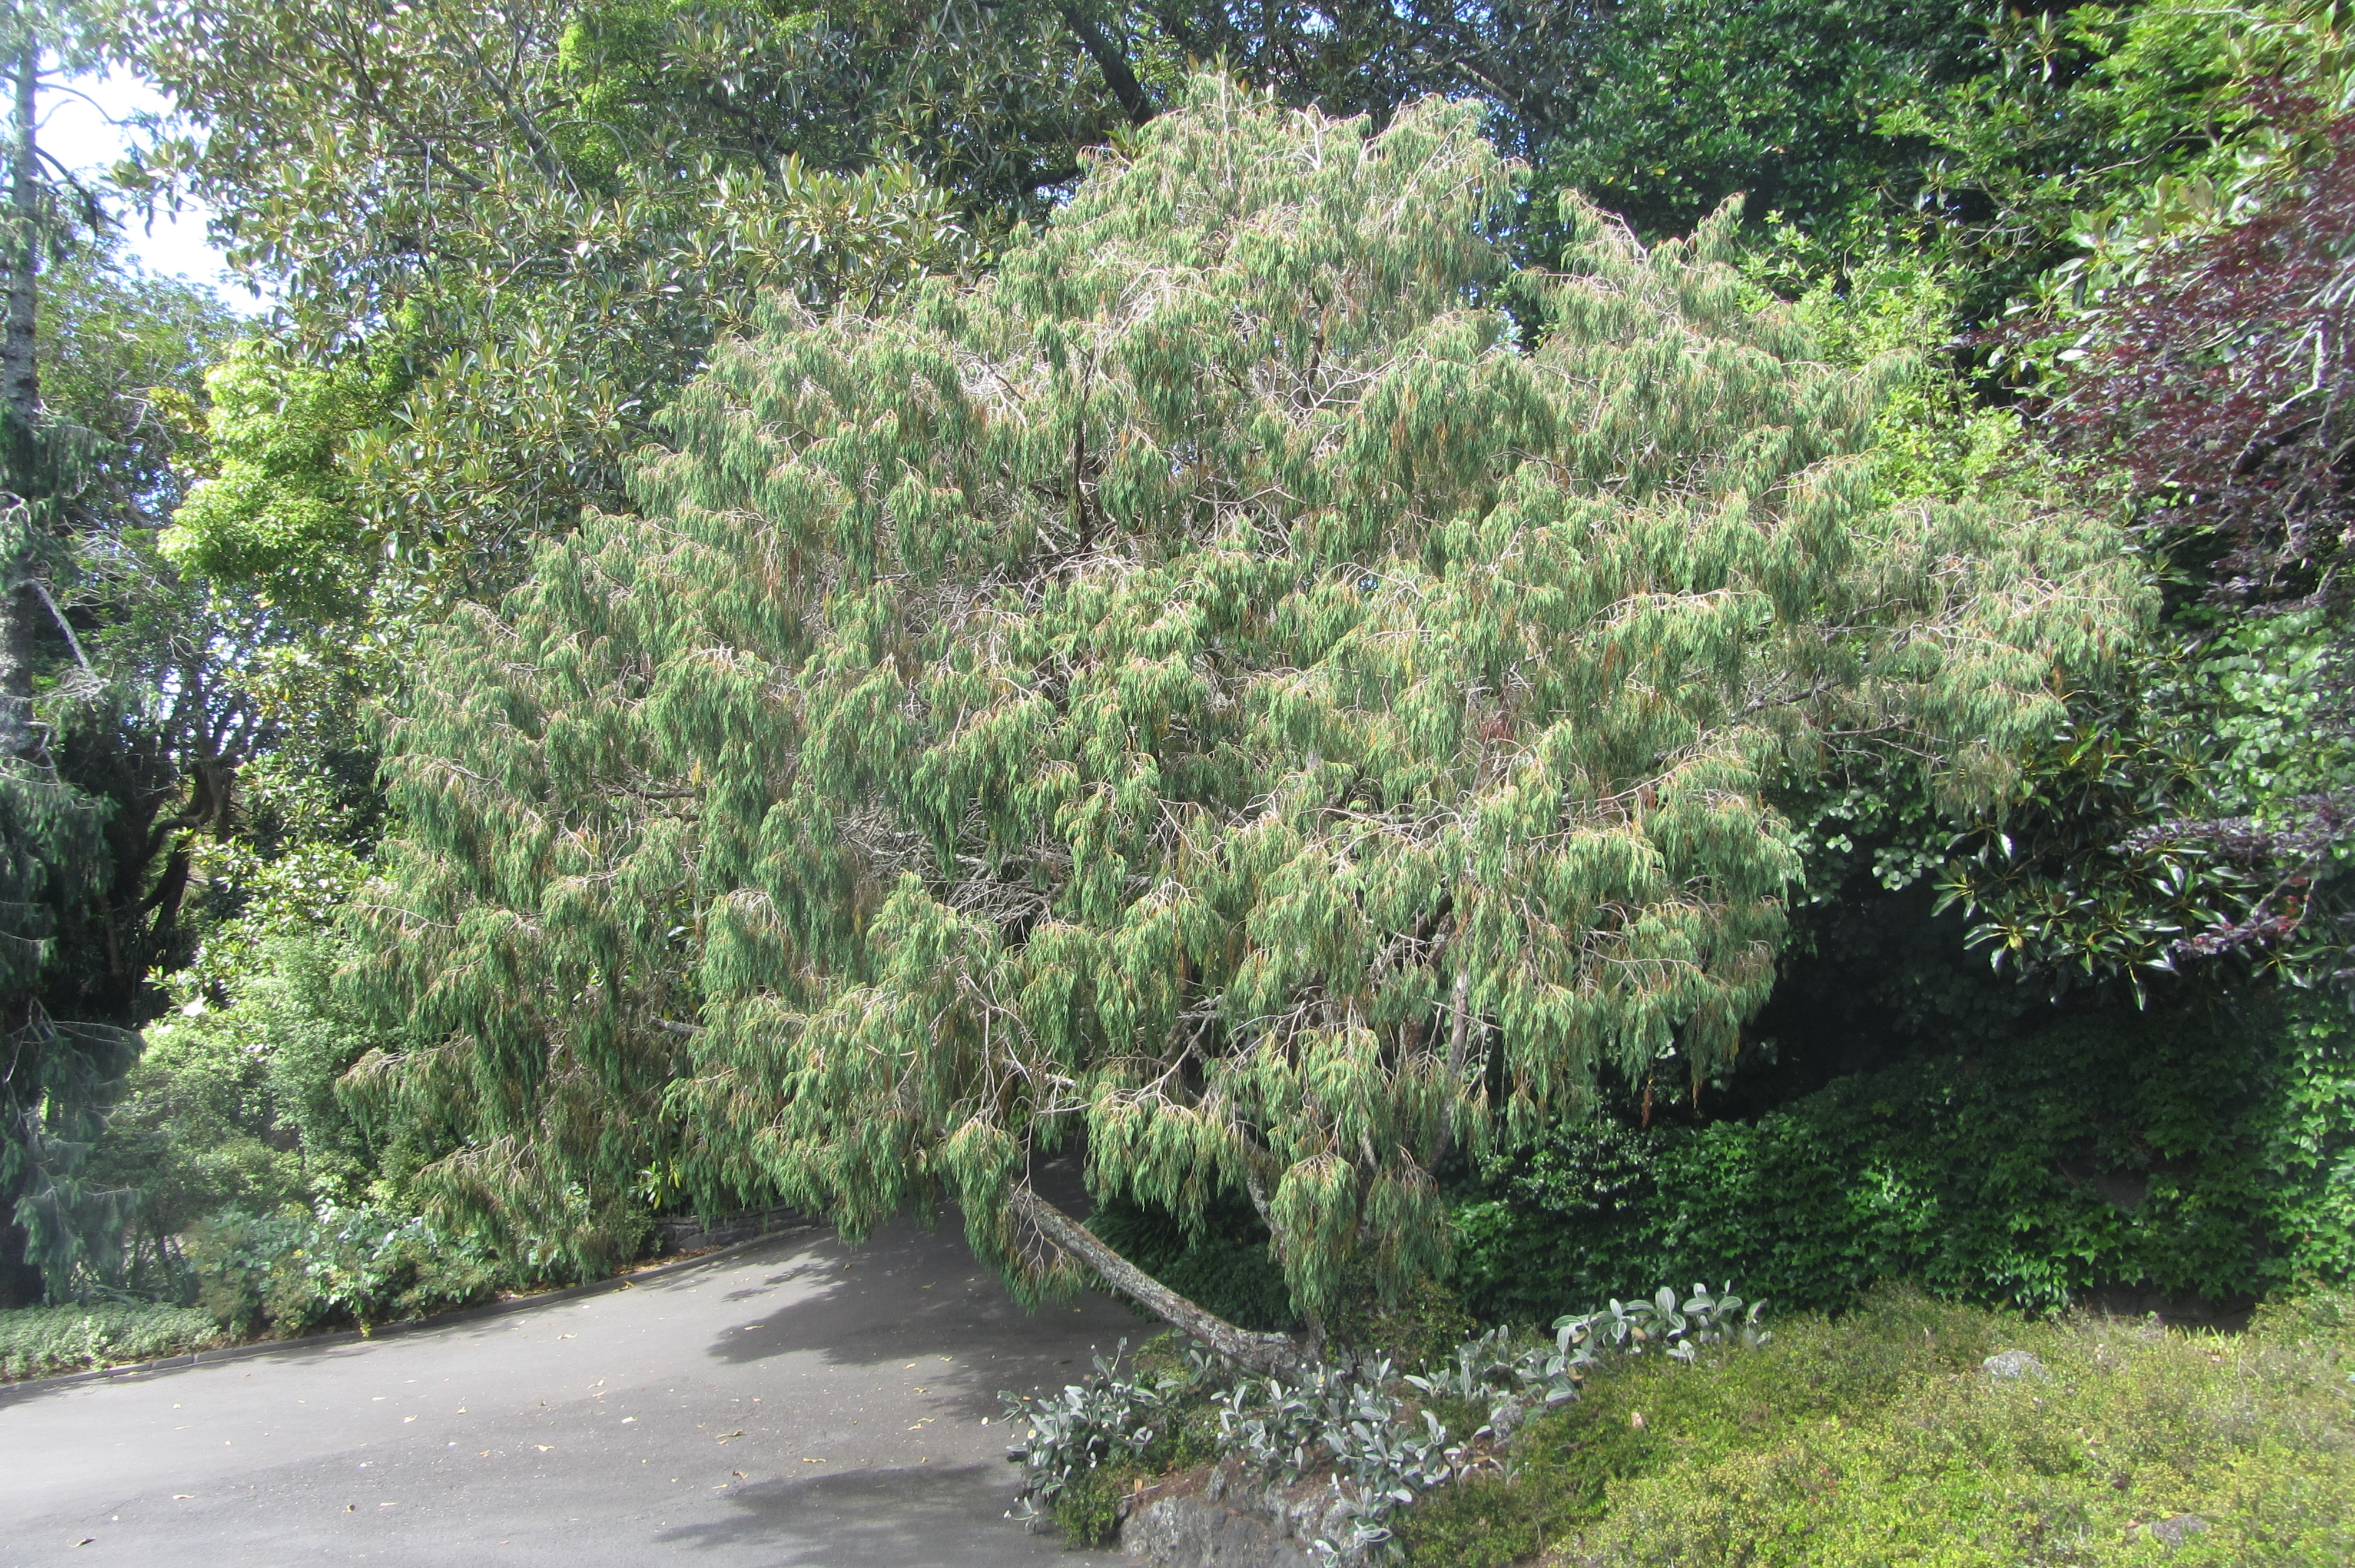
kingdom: Plantae
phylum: Bryophyta
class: Bryopsida
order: Bryales
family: Leptostomataceae
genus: Leptostomum
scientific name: Leptostomum macrocarpon
